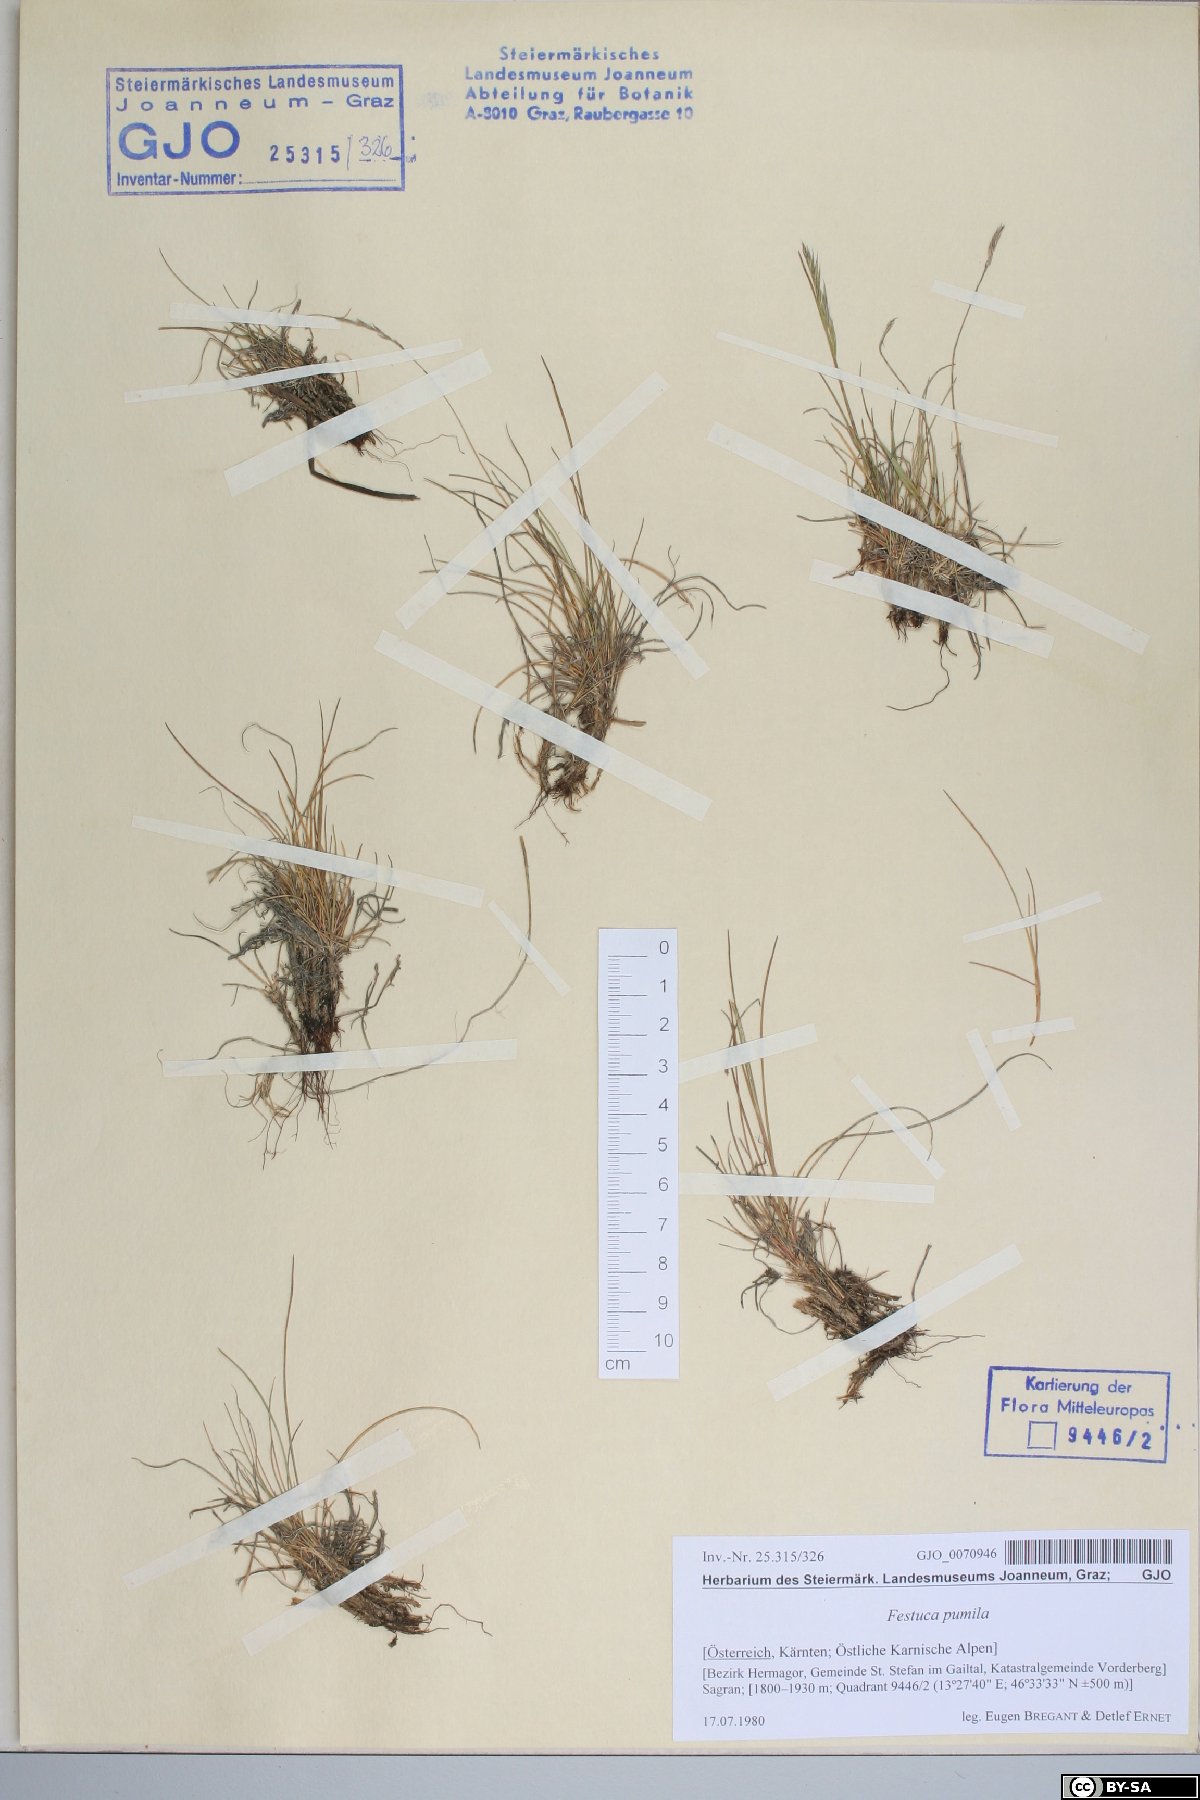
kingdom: Plantae
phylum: Tracheophyta
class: Liliopsida
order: Poales
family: Poaceae
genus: Festuca
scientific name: Festuca quadriflora
